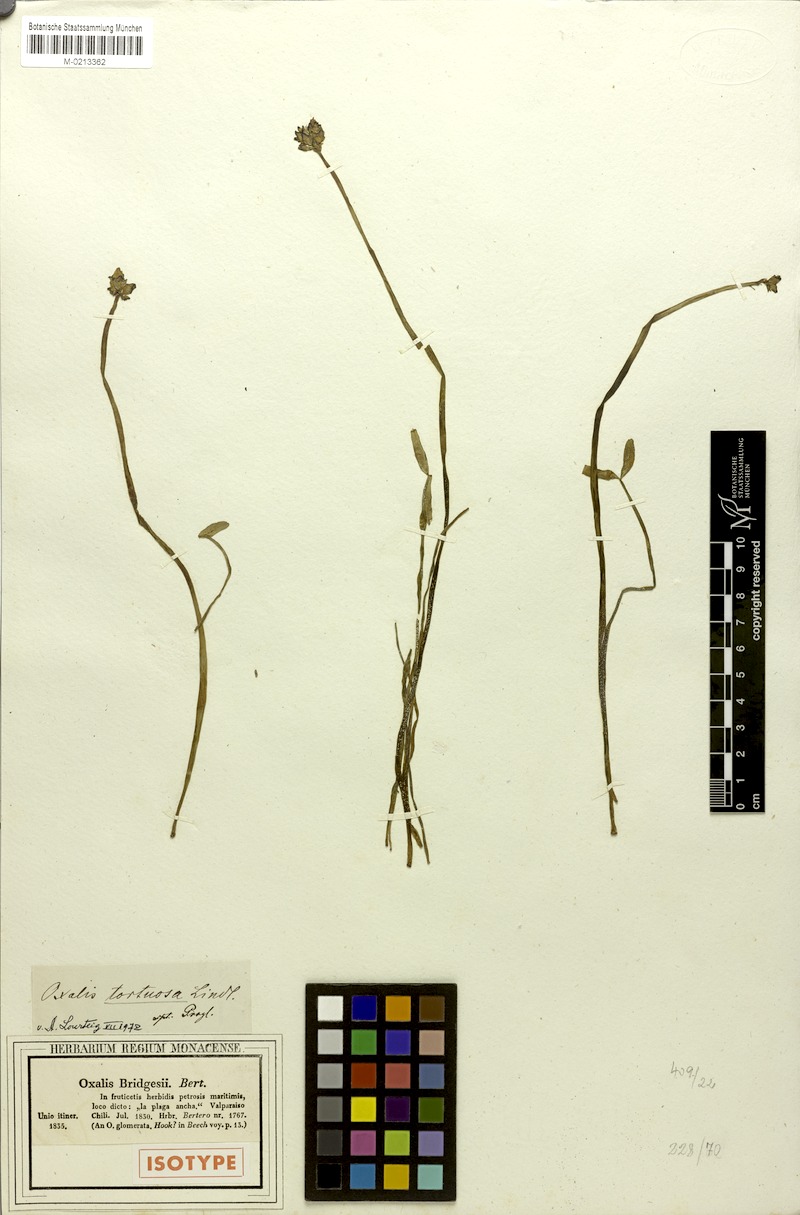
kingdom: Plantae
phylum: Tracheophyta
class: Magnoliopsida
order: Oxalidales
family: Oxalidaceae
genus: Oxalis
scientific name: Oxalis tortuosa
